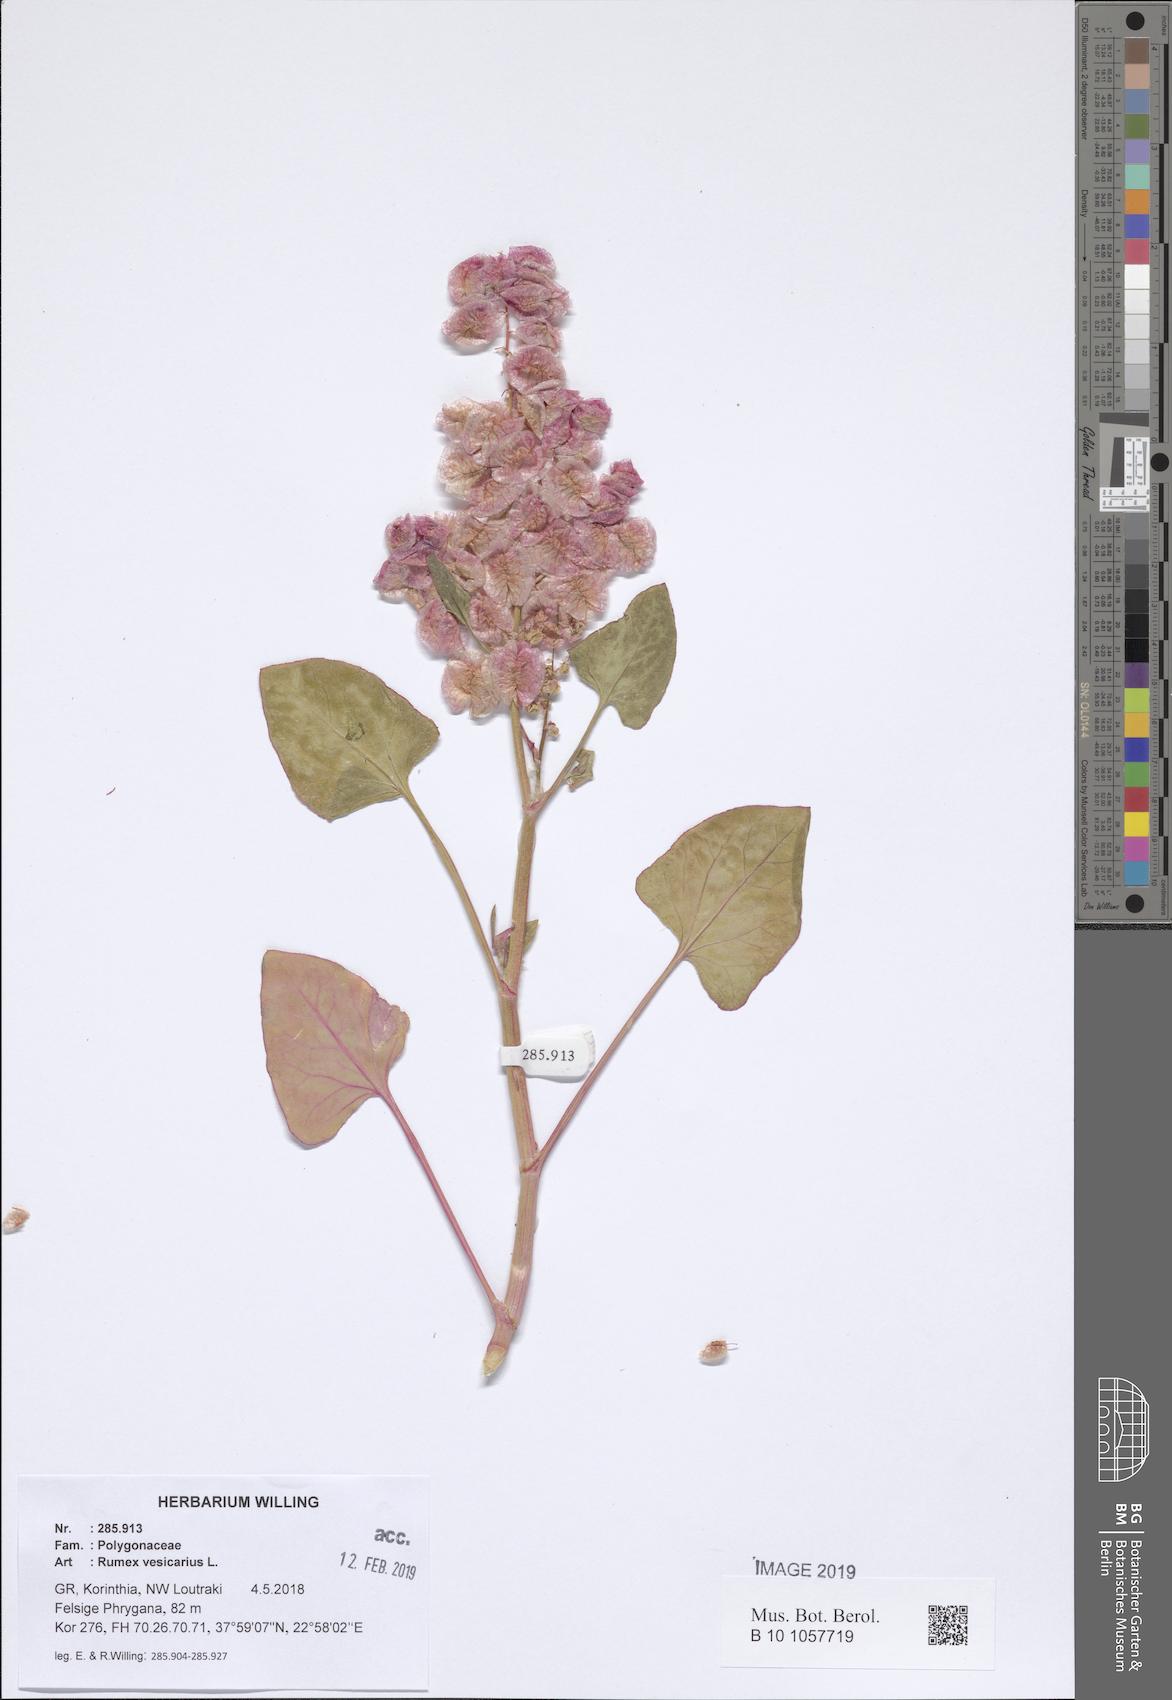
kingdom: Plantae
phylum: Tracheophyta
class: Magnoliopsida
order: Caryophyllales
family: Polygonaceae
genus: Rumex
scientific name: Rumex vesicarius
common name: Bladder dock
